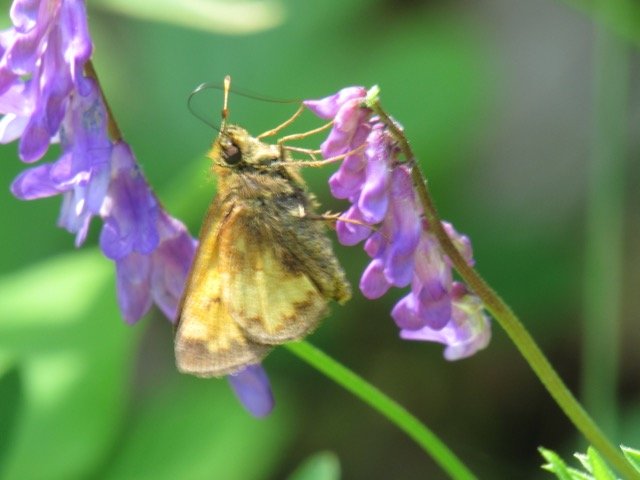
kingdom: Animalia
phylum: Arthropoda
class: Insecta
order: Lepidoptera
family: Hesperiidae
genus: Lon
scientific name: Lon hobomok
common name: Hobomok Skipper
